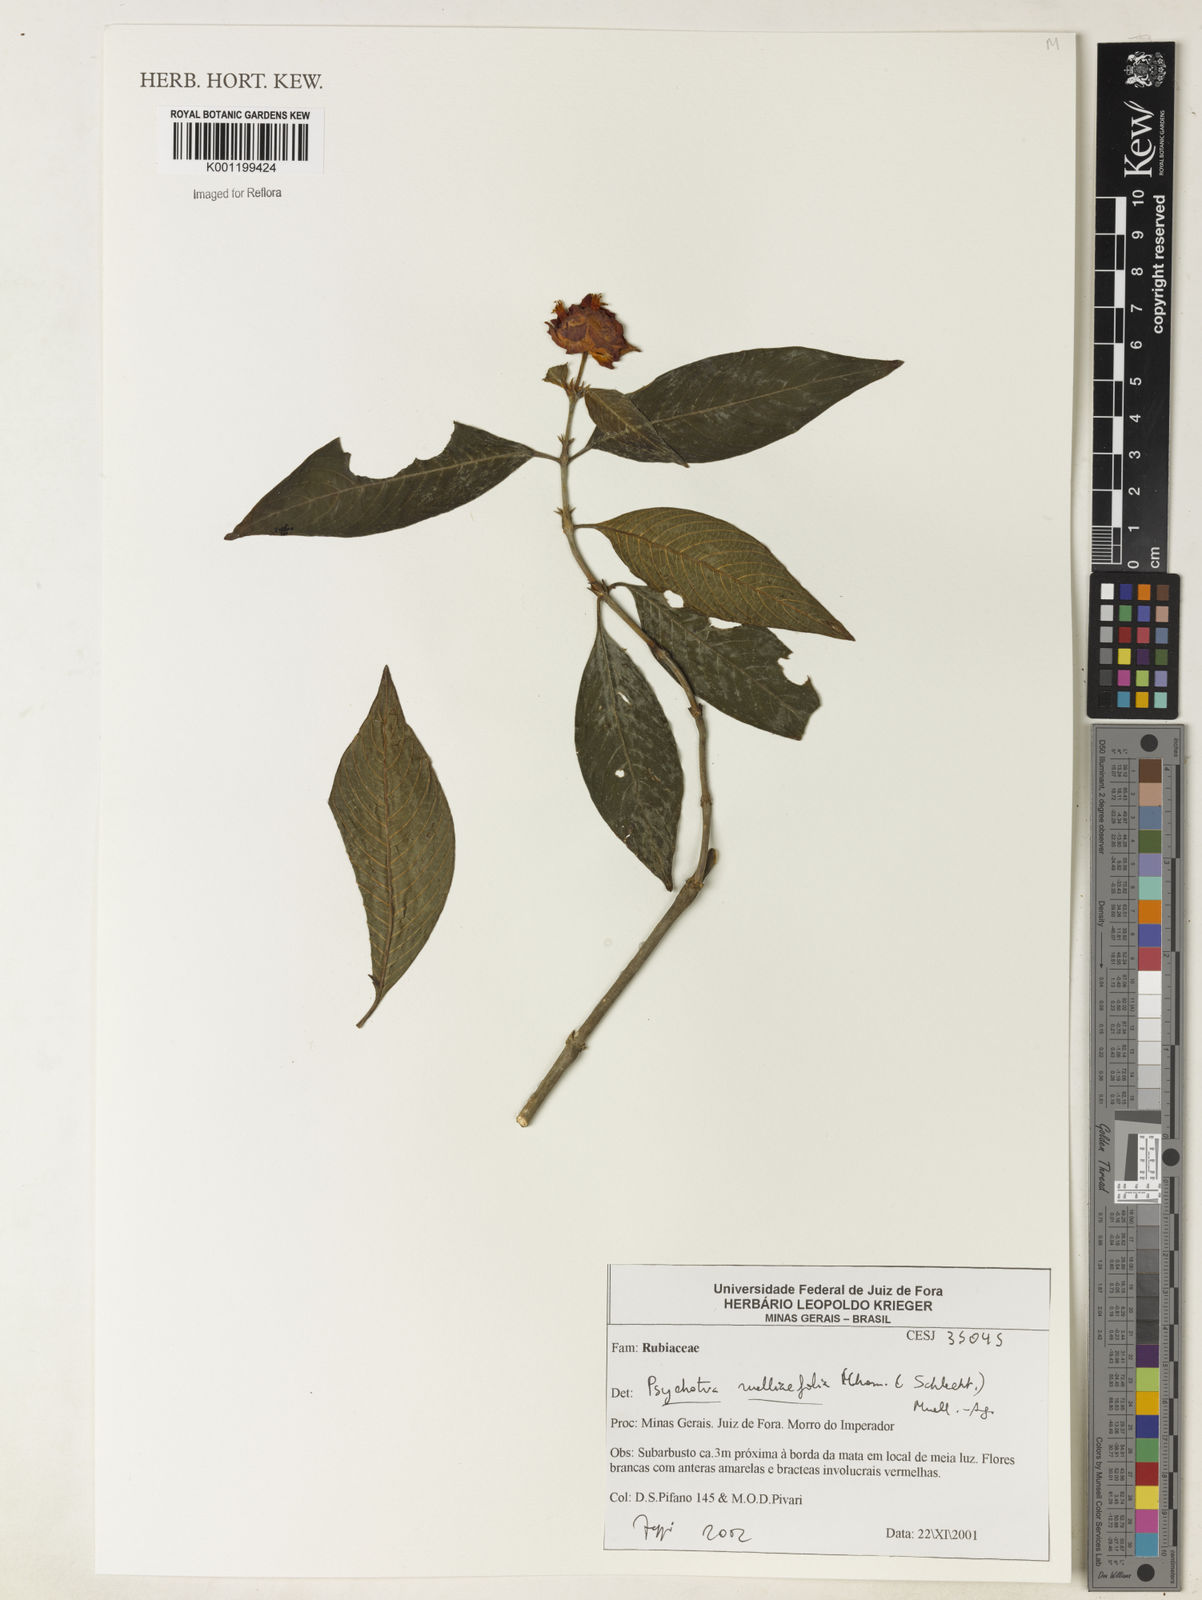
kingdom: Plantae
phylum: Tracheophyta
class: Magnoliopsida
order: Gentianales
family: Rubiaceae
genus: Psychotria
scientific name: Psychotria
